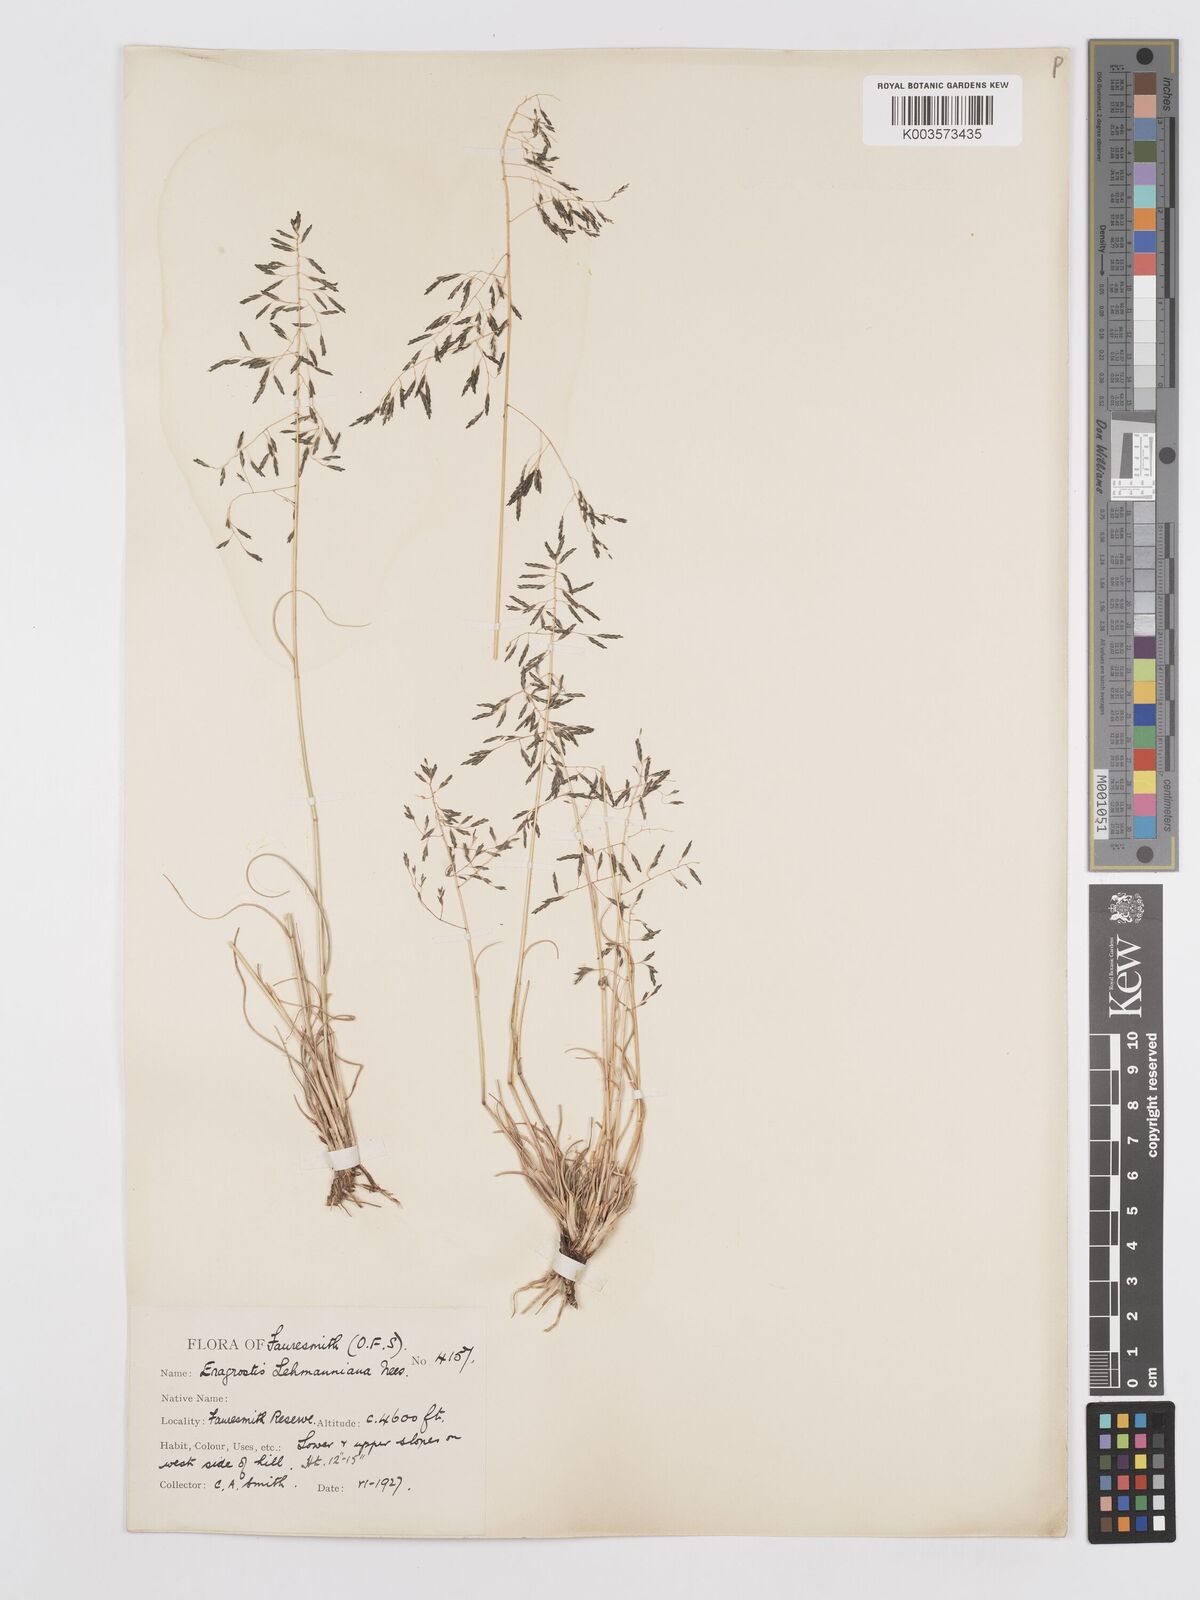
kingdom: Plantae
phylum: Tracheophyta
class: Liliopsida
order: Poales
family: Poaceae
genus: Eragrostis
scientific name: Eragrostis lehmanniana
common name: Lehmann lovegrass
